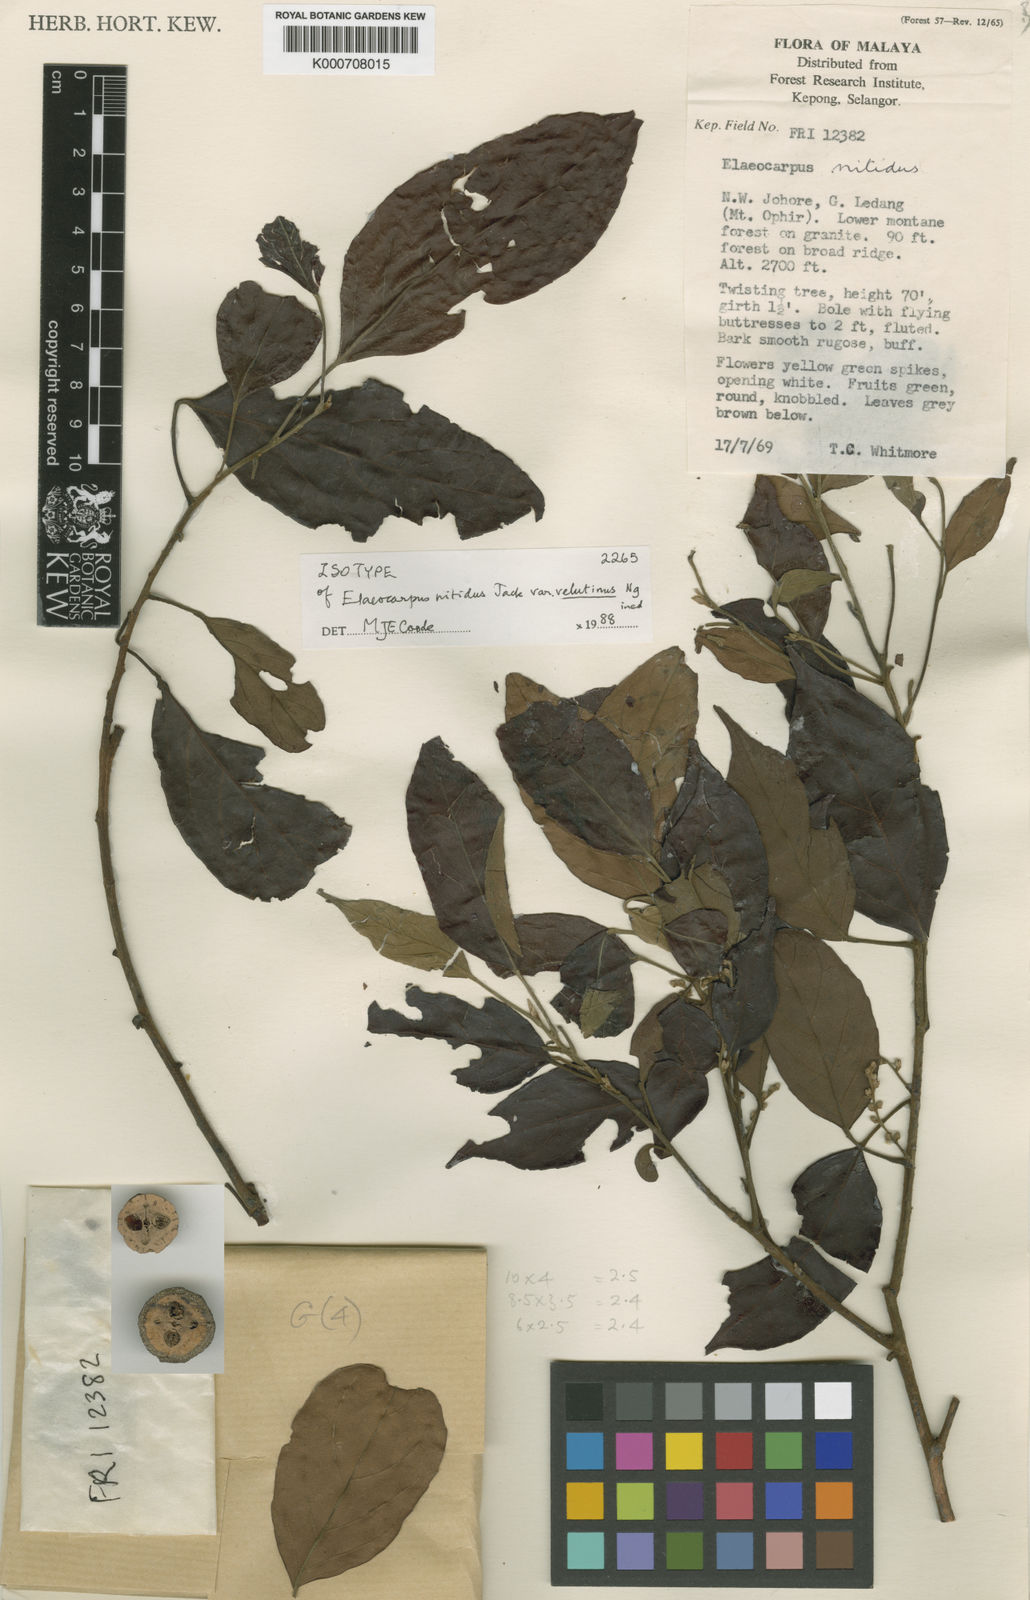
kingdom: Plantae
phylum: Tracheophyta
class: Magnoliopsida
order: Oxalidales
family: Elaeocarpaceae
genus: Elaeocarpus
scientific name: Elaeocarpus nitidus
